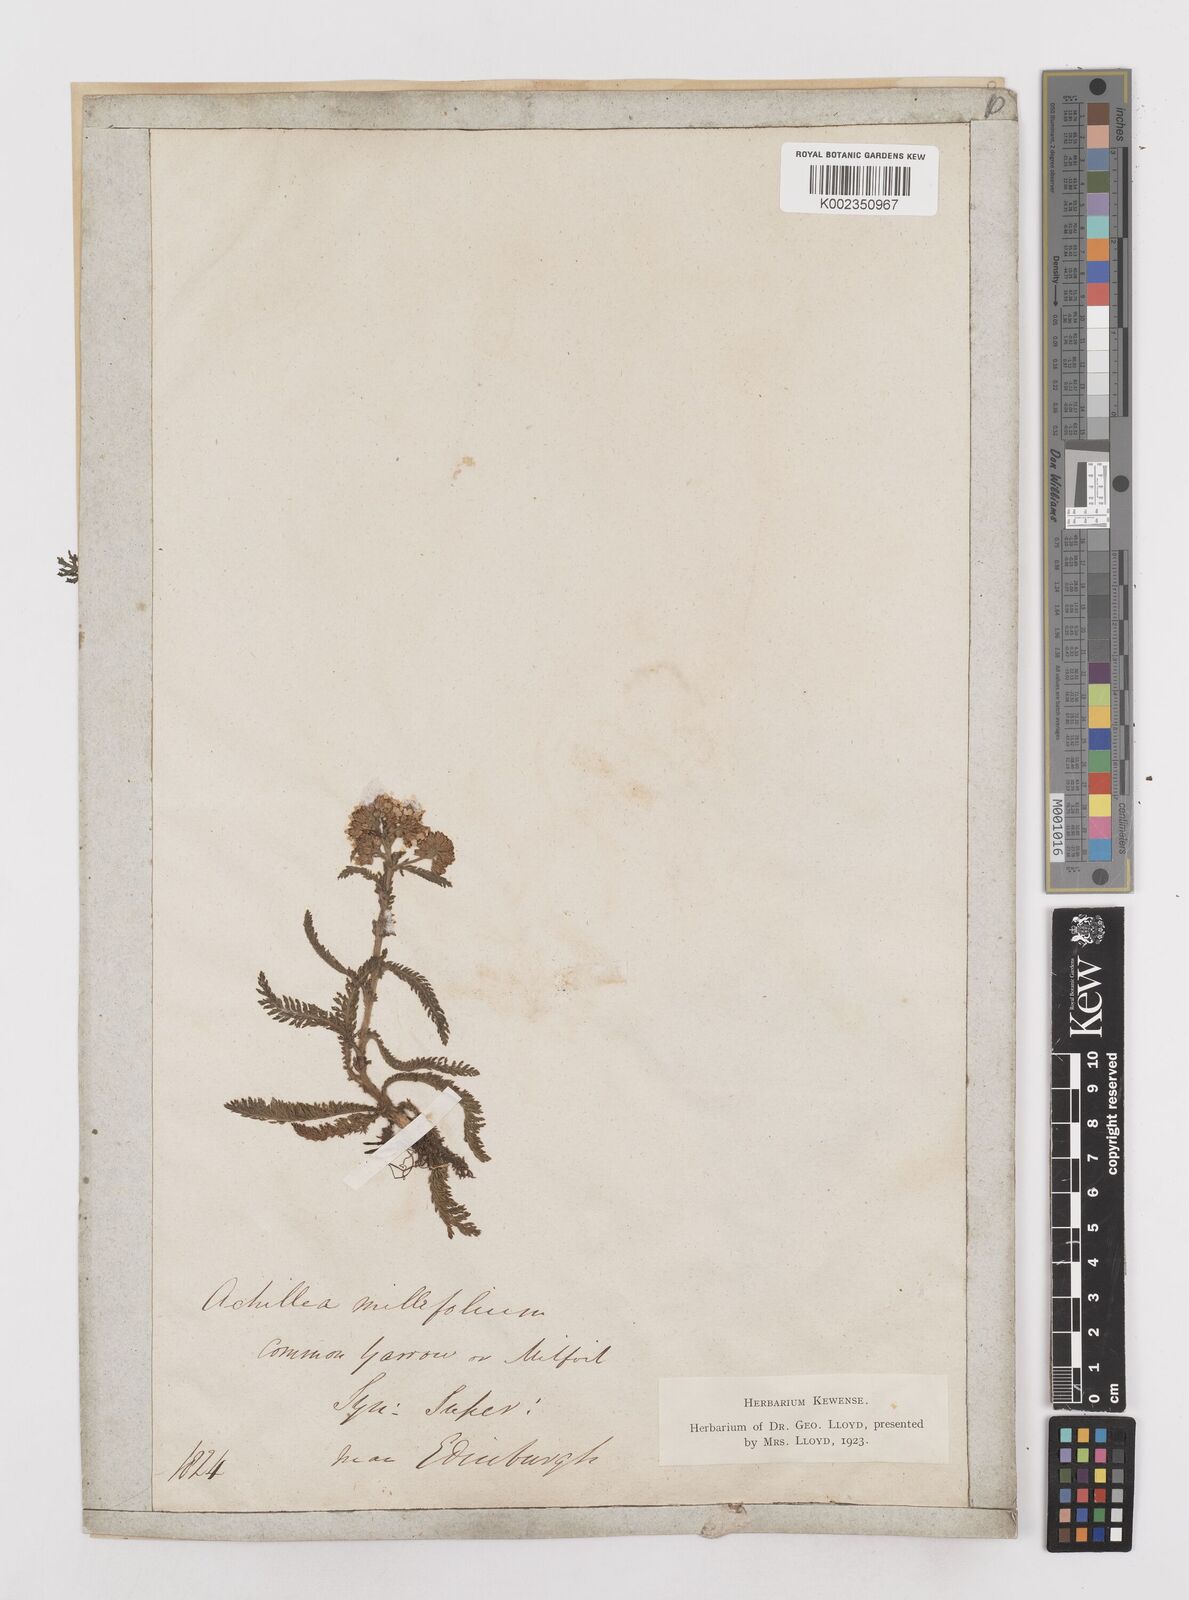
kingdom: Plantae
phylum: Tracheophyta
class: Magnoliopsida
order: Asterales
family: Asteraceae
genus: Achillea
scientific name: Achillea millefolium
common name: Yarrow
